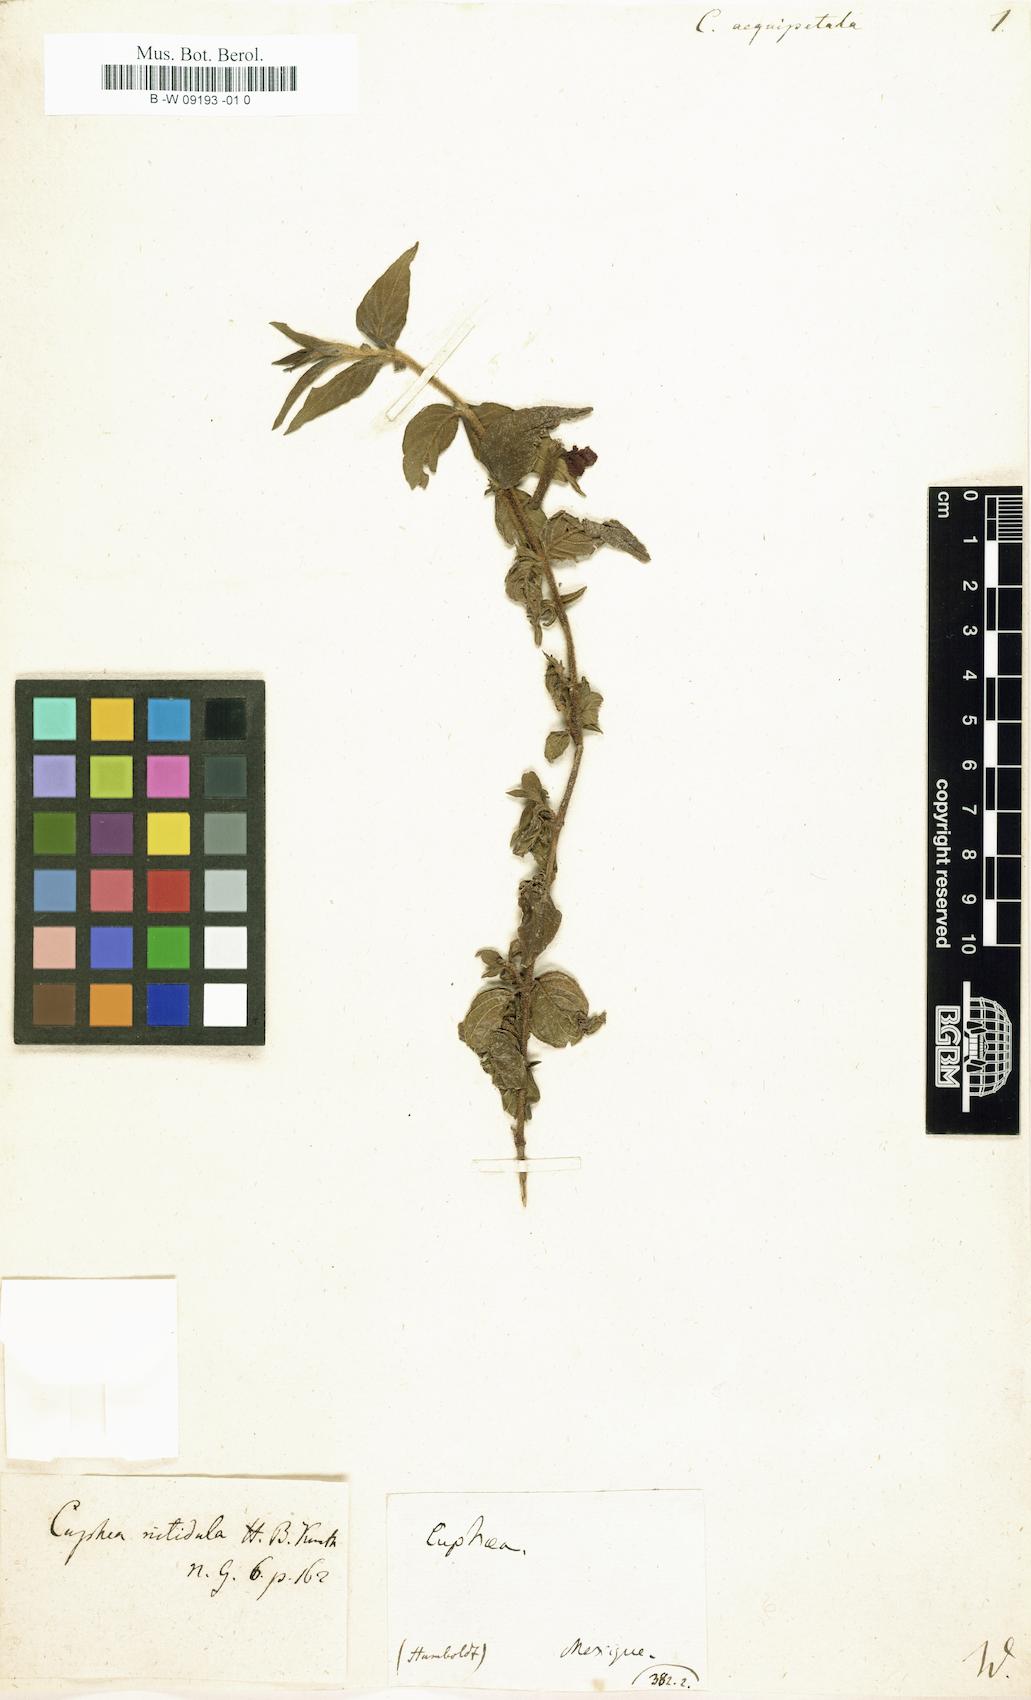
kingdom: Plantae
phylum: Tracheophyta
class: Magnoliopsida
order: Myrtales
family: Lythraceae
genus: Cuphea
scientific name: Cuphea aequipetala
